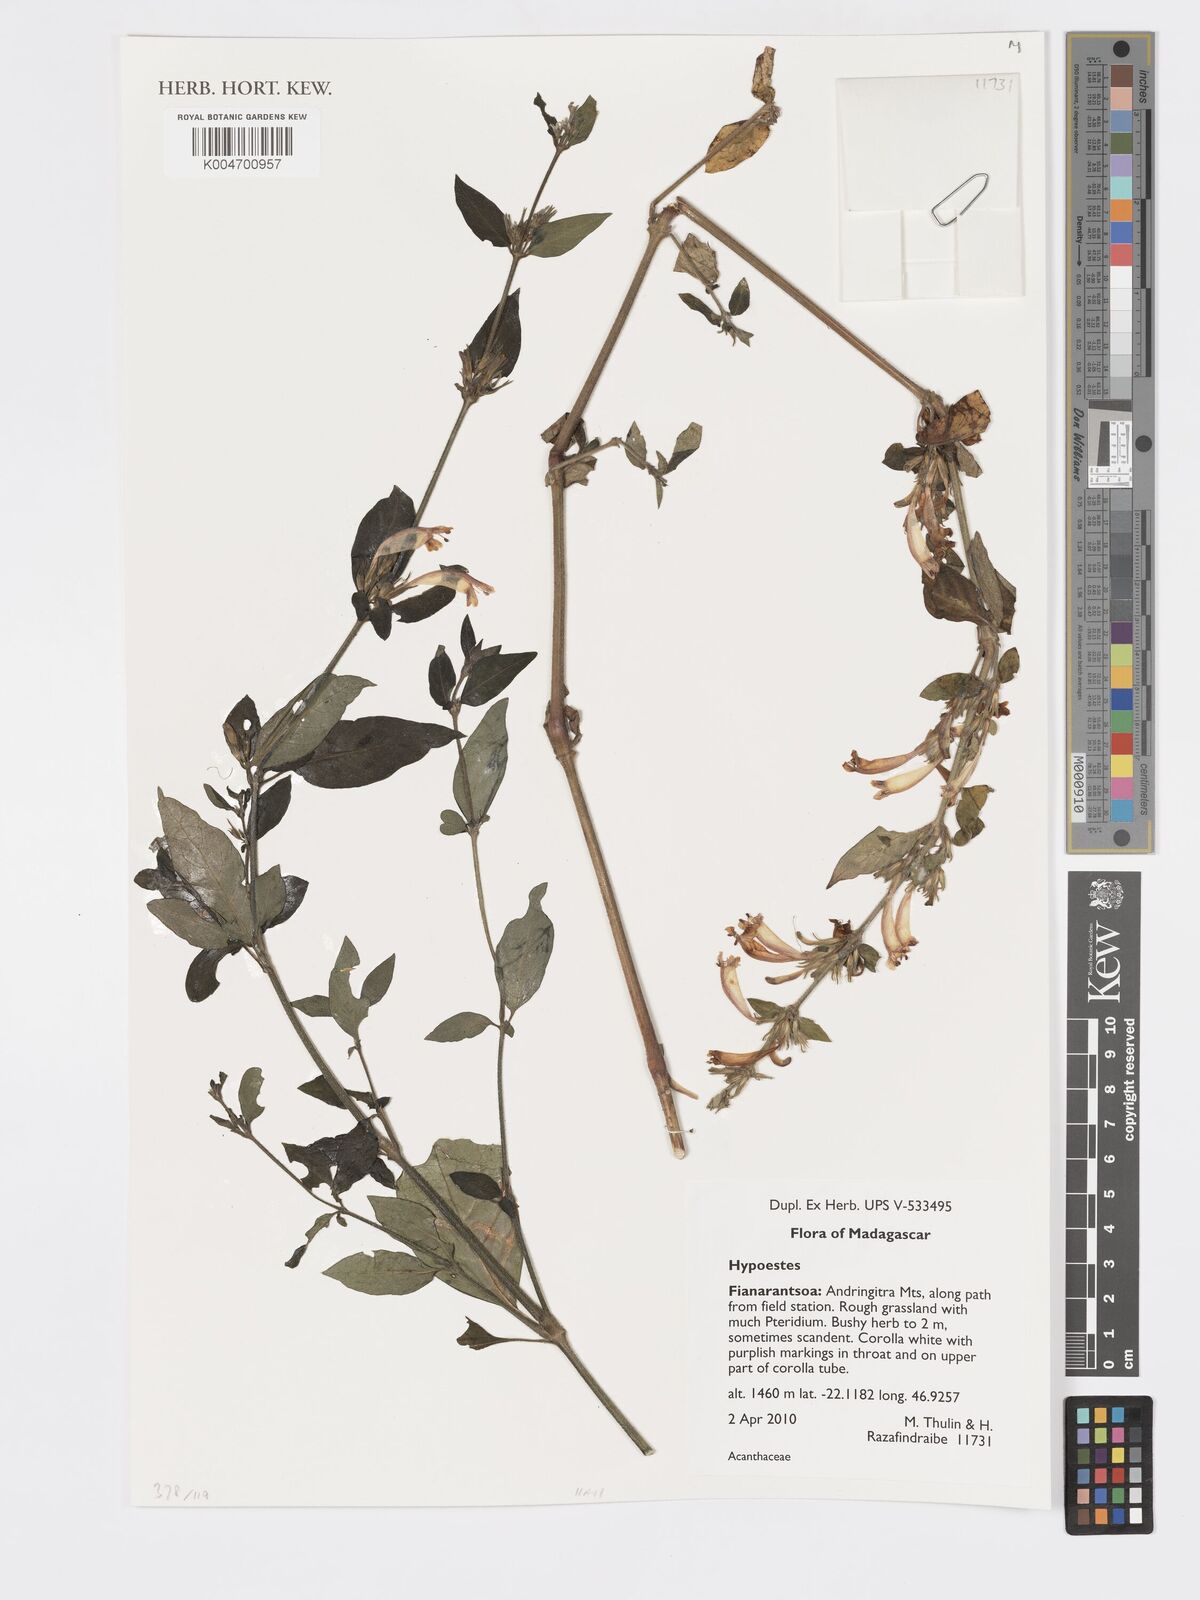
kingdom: Plantae
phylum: Tracheophyta
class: Magnoliopsida
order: Lamiales
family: Acanthaceae
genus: Hypoestes
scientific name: Hypoestes
